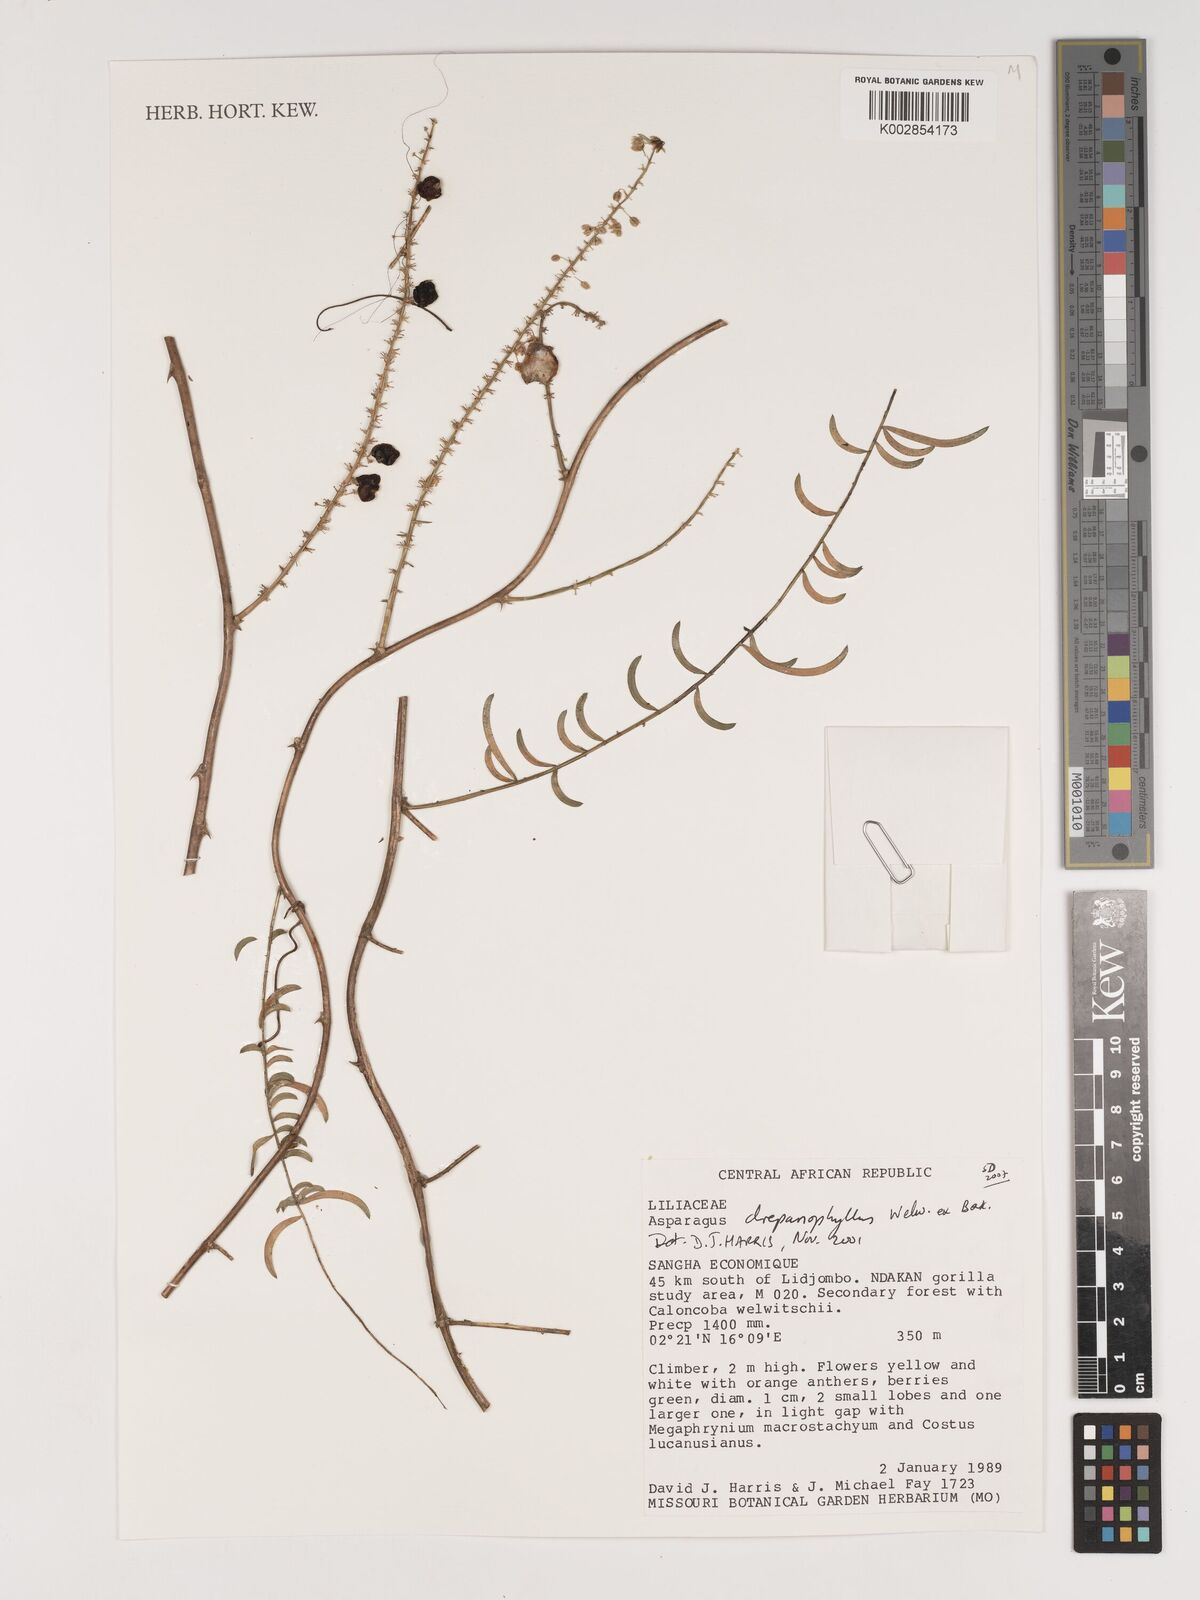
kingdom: Plantae
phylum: Tracheophyta
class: Liliopsida
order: Asparagales
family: Asparagaceae
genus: Asparagus
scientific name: Asparagus drepanophyllus
